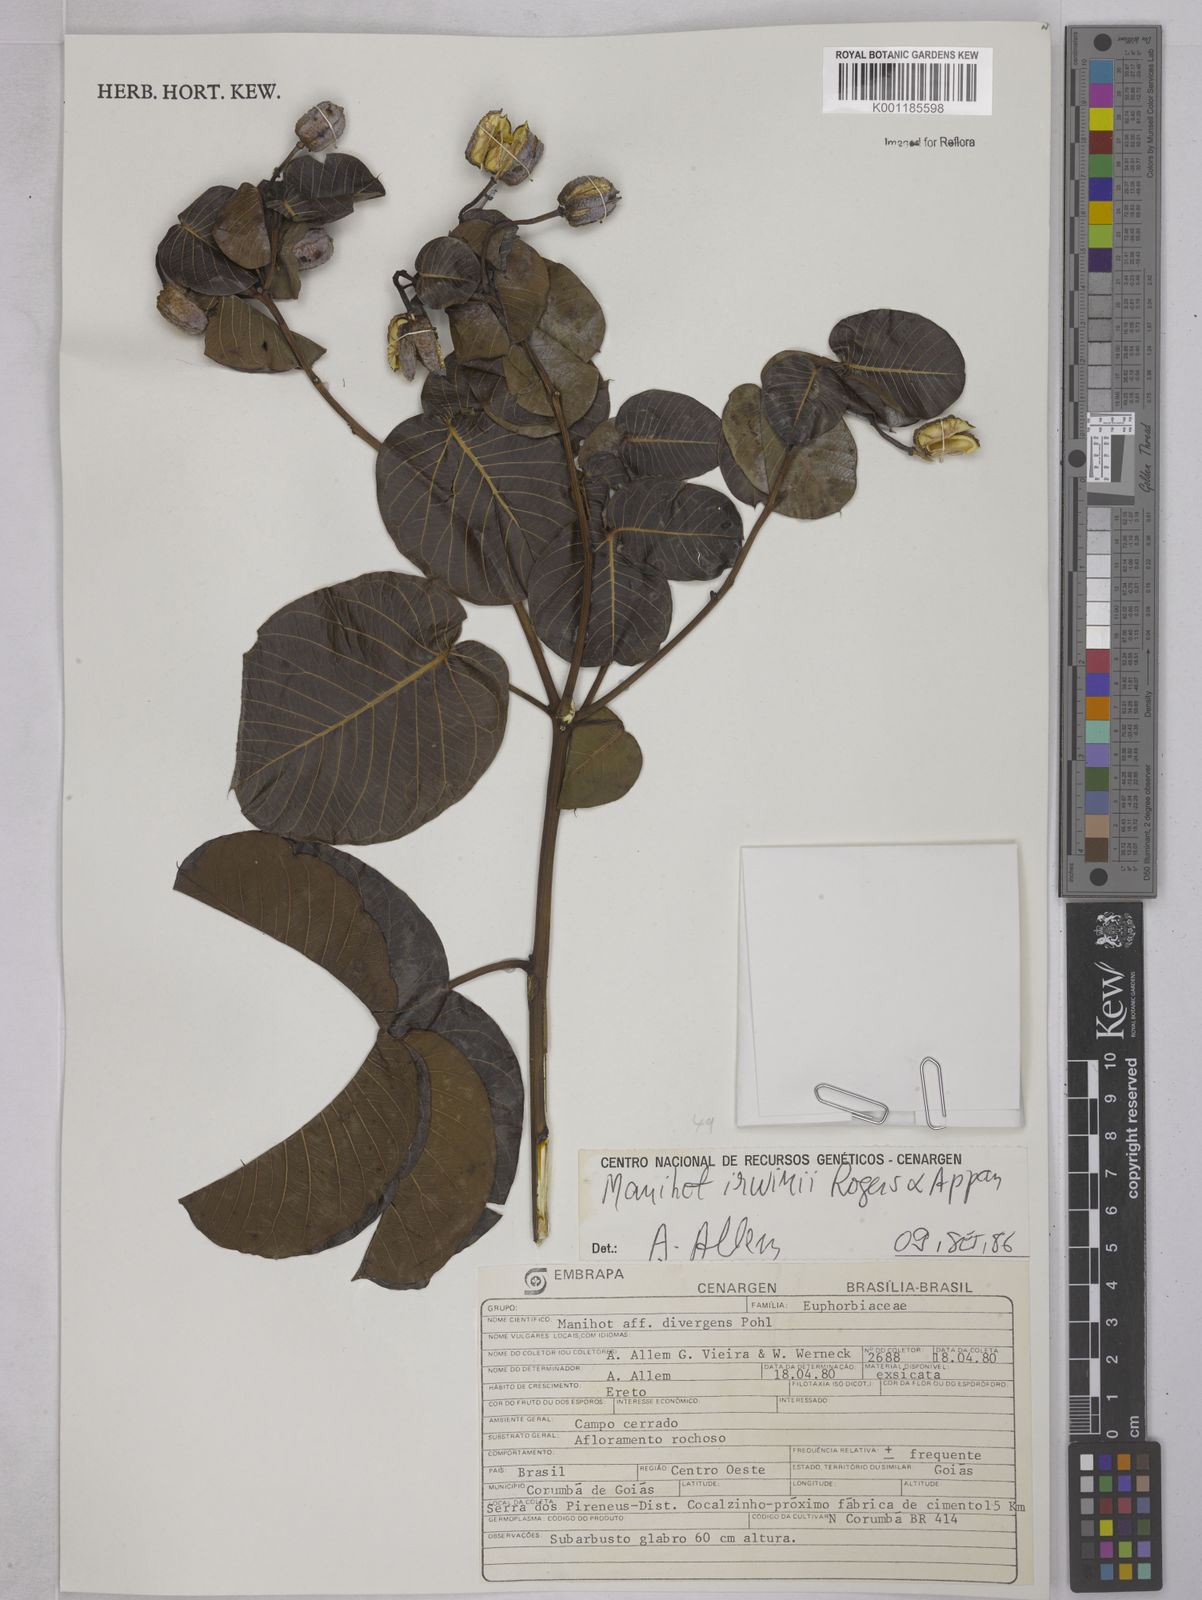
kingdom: Plantae
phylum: Tracheophyta
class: Magnoliopsida
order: Malpighiales
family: Euphorbiaceae
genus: Manihot
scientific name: Manihot irwinii
